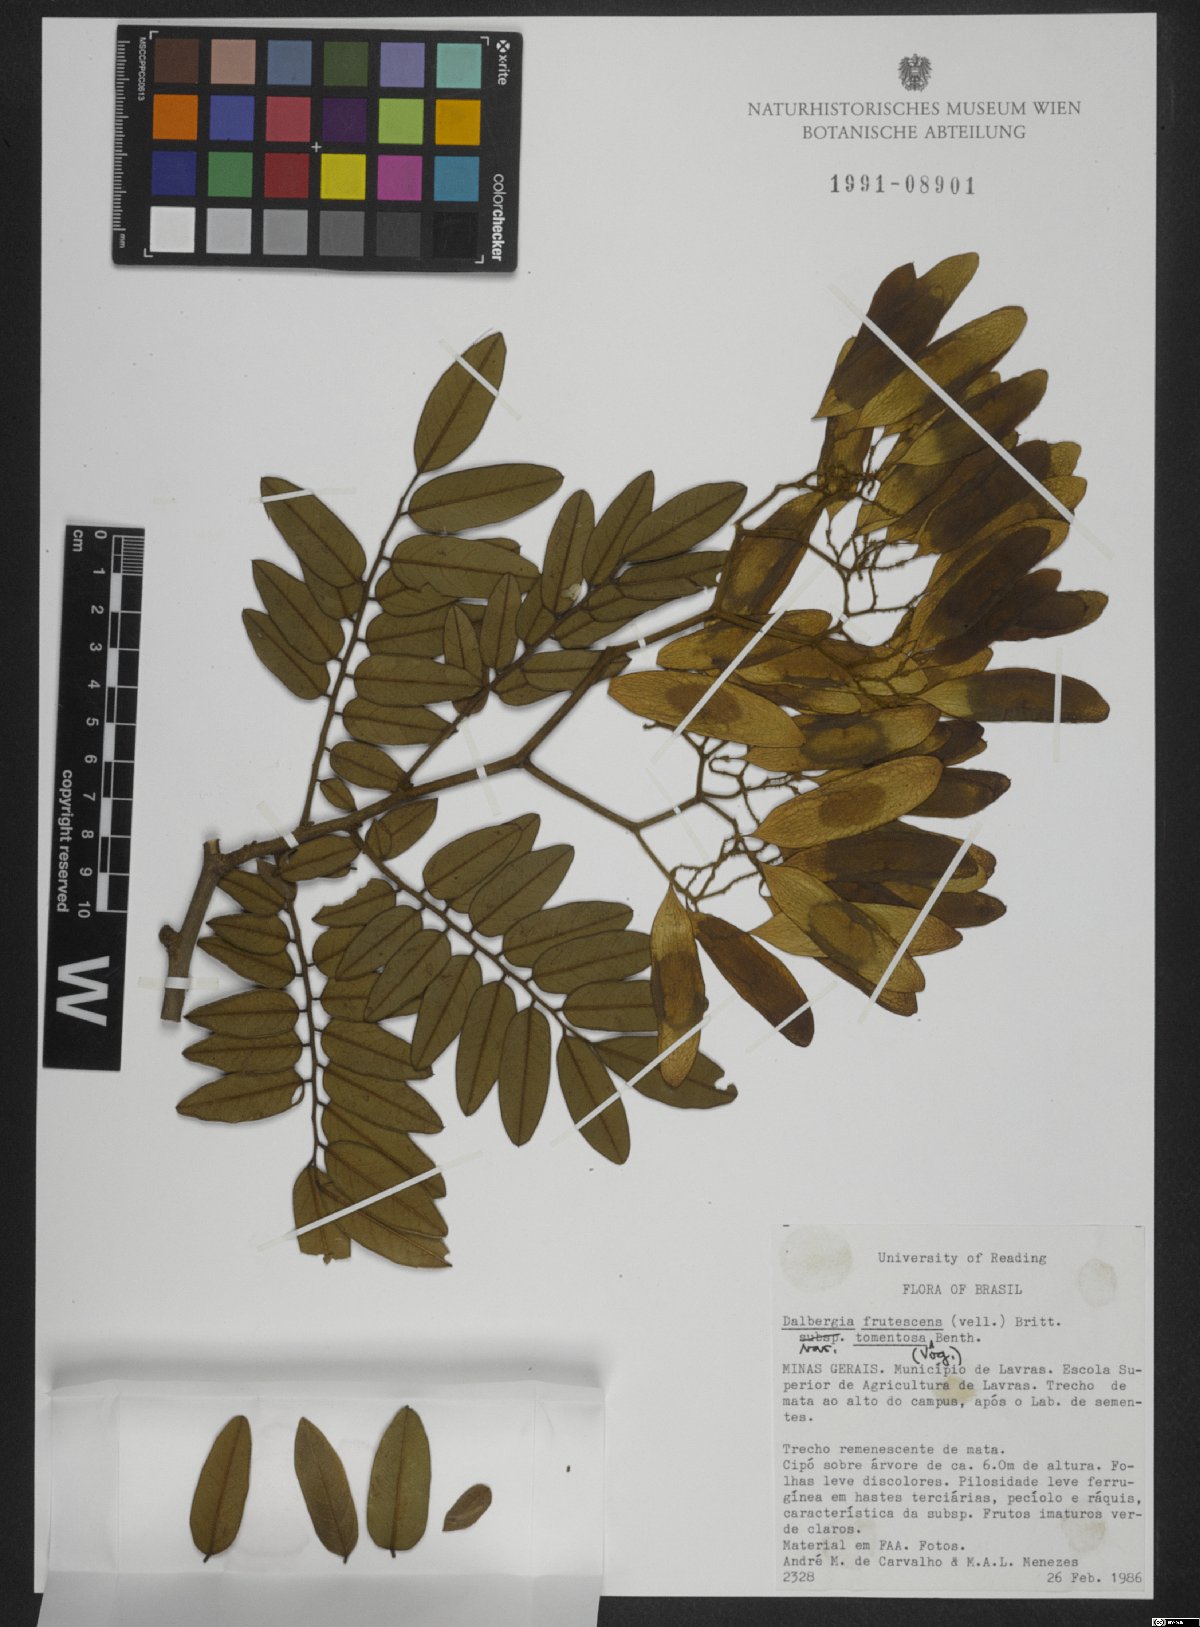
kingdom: Plantae
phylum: Tracheophyta
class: Magnoliopsida
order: Fabales
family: Fabaceae
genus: Dalbergia
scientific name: Dalbergia frutescens
